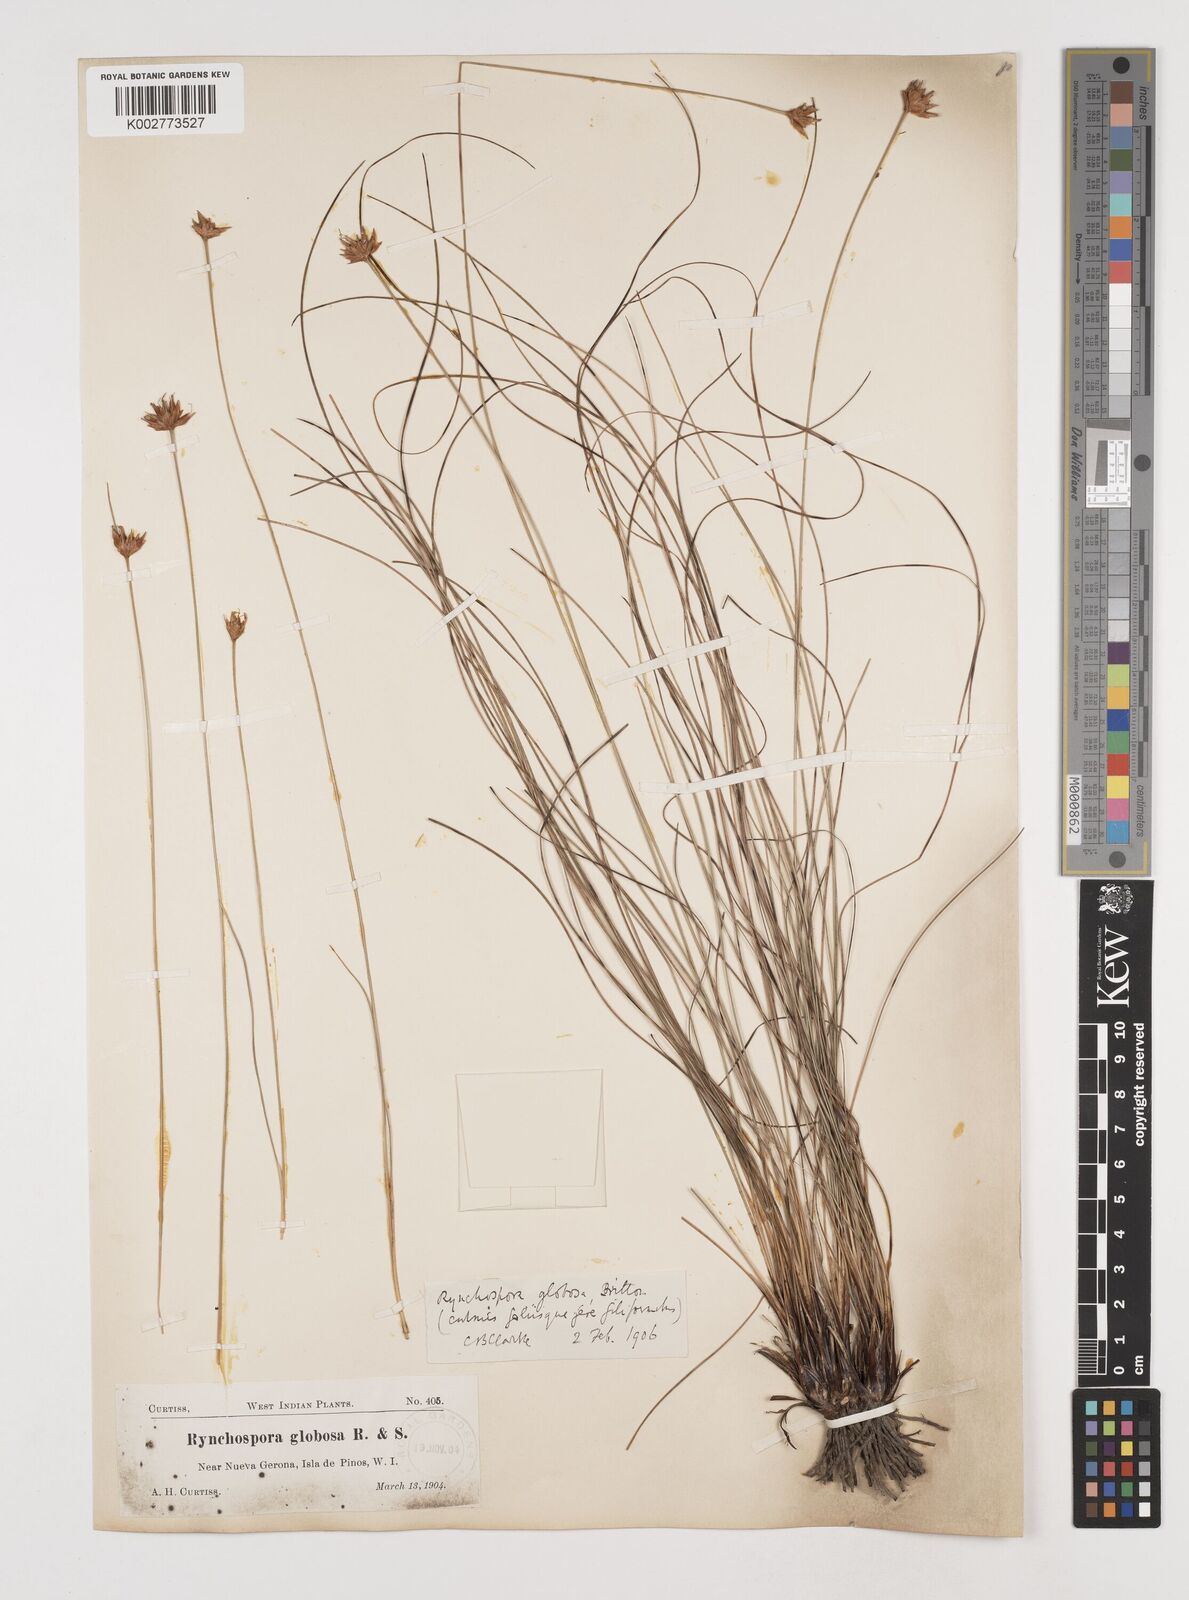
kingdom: Plantae
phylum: Tracheophyta
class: Liliopsida
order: Poales
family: Cyperaceae
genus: Rhynchospora
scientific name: Rhynchospora globosa
